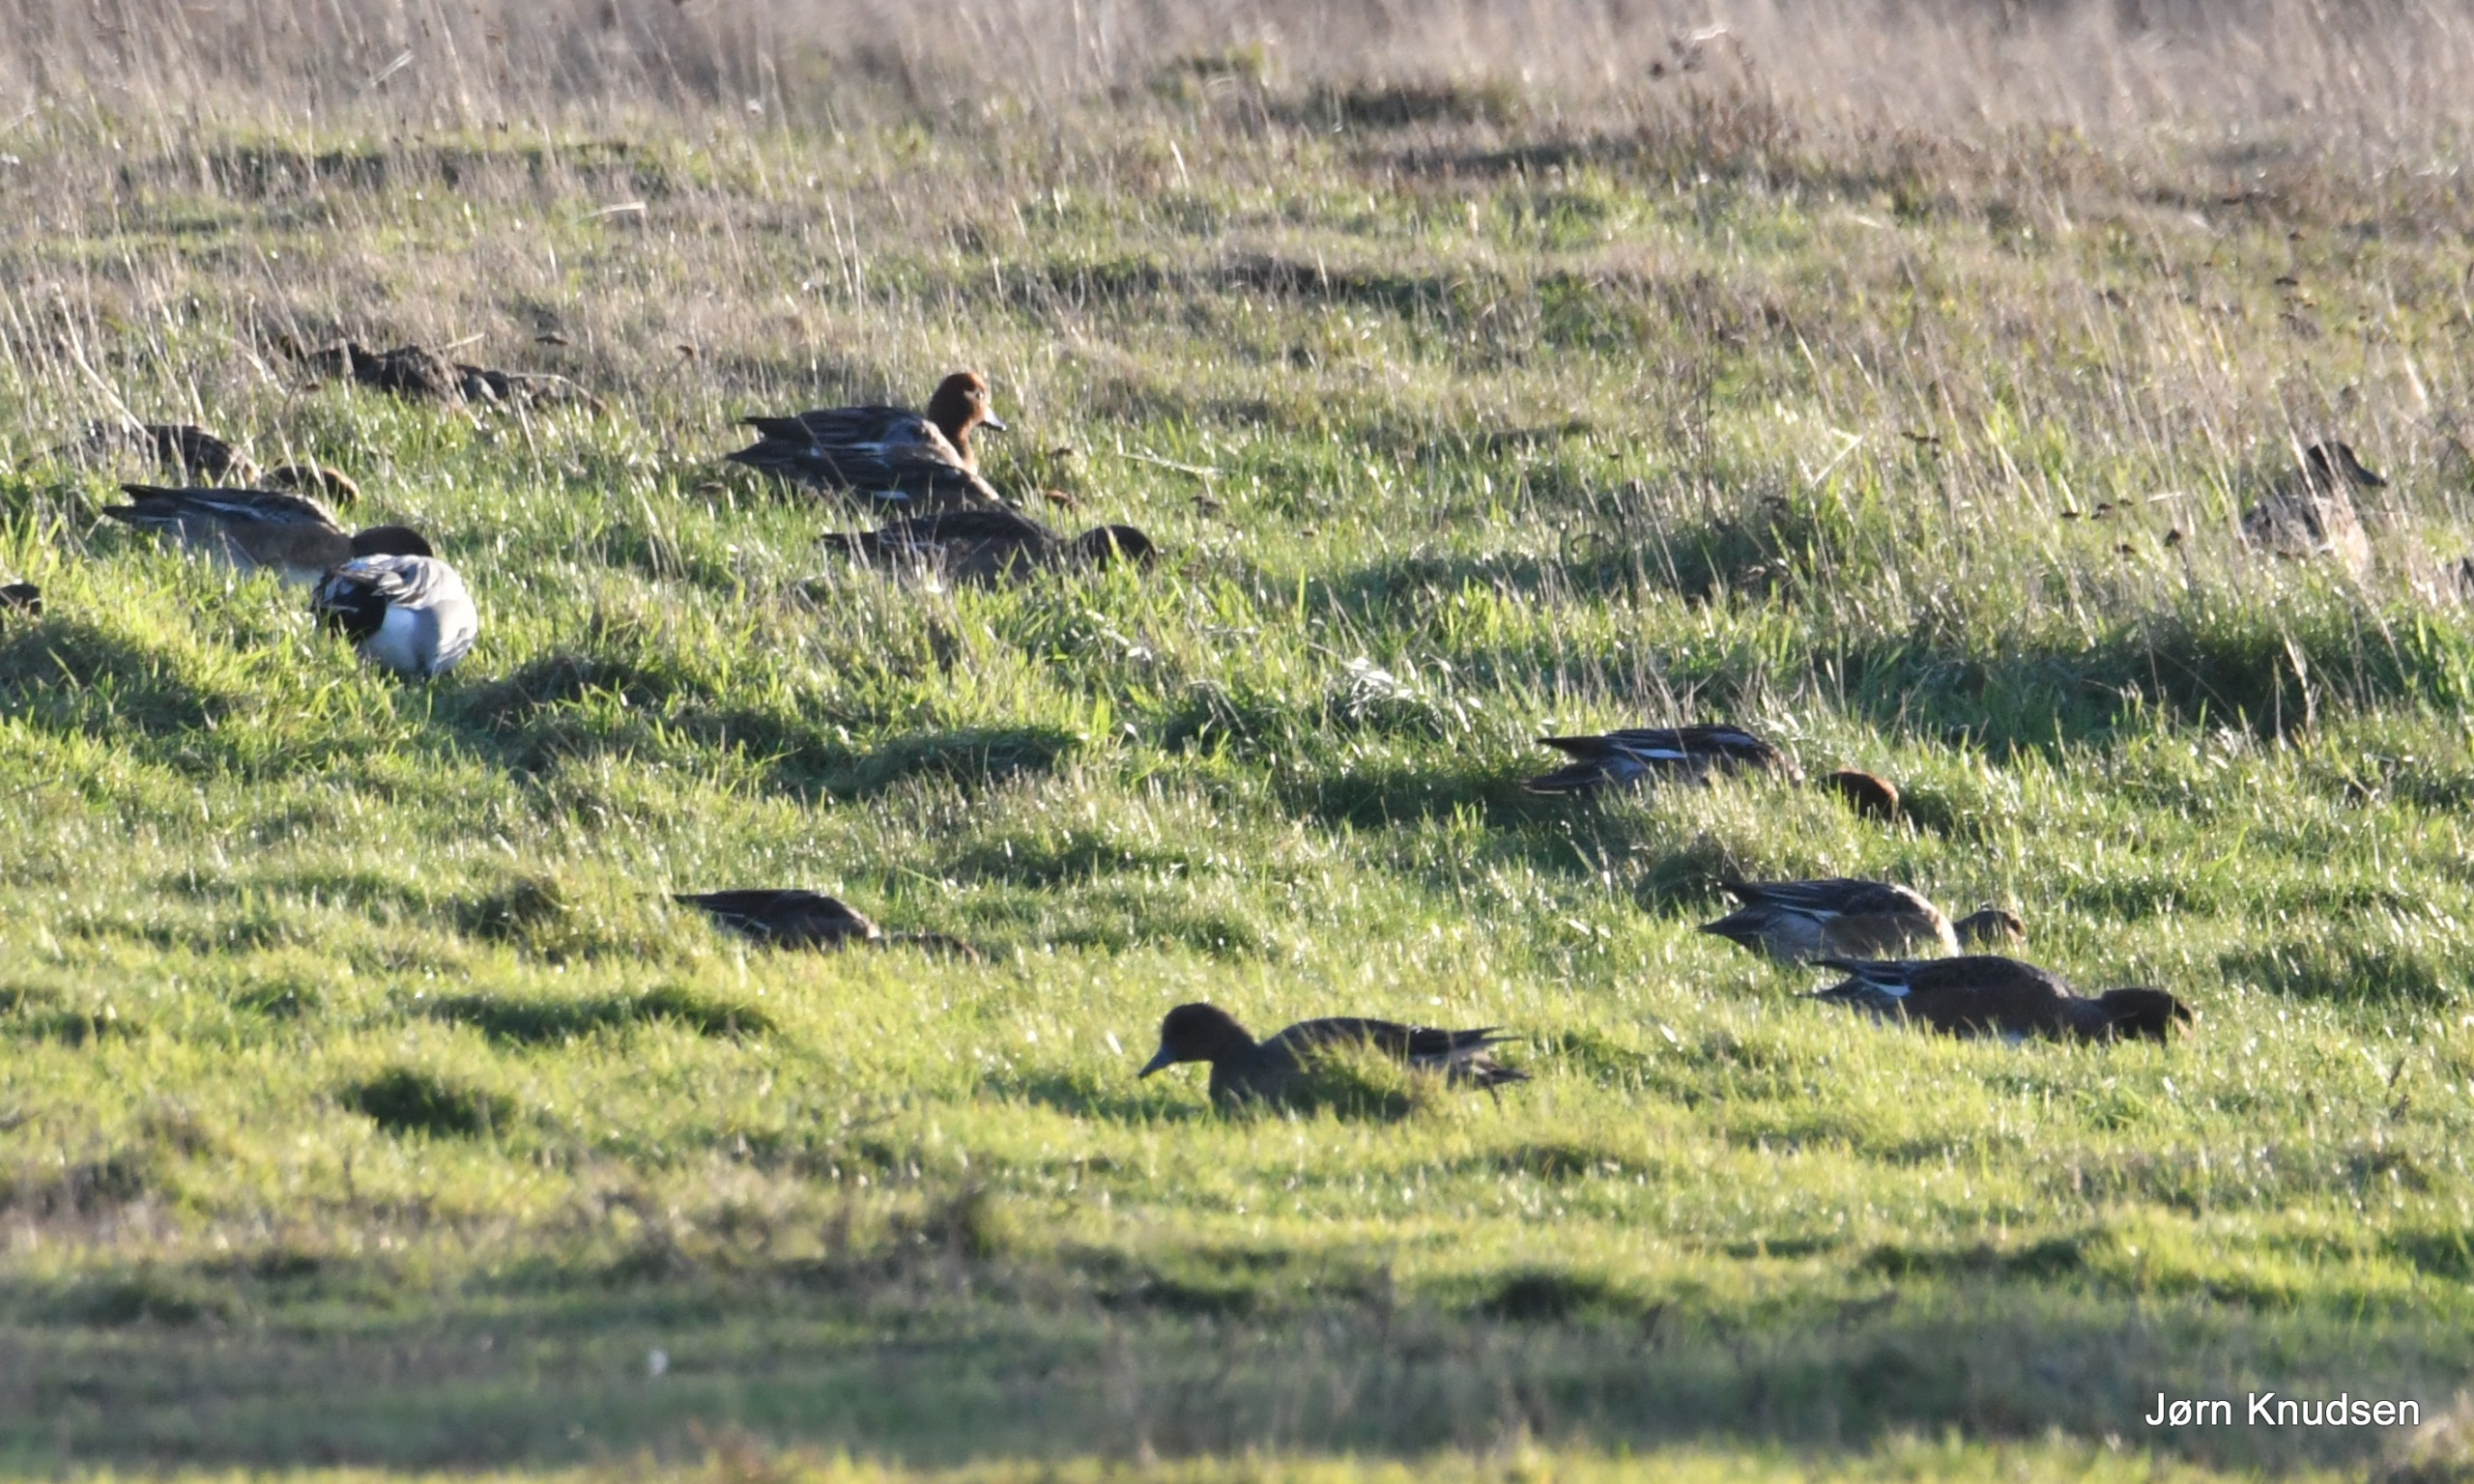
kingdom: Animalia
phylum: Chordata
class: Aves
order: Anseriformes
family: Anatidae
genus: Mareca
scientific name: Mareca penelope
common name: Pibeand
